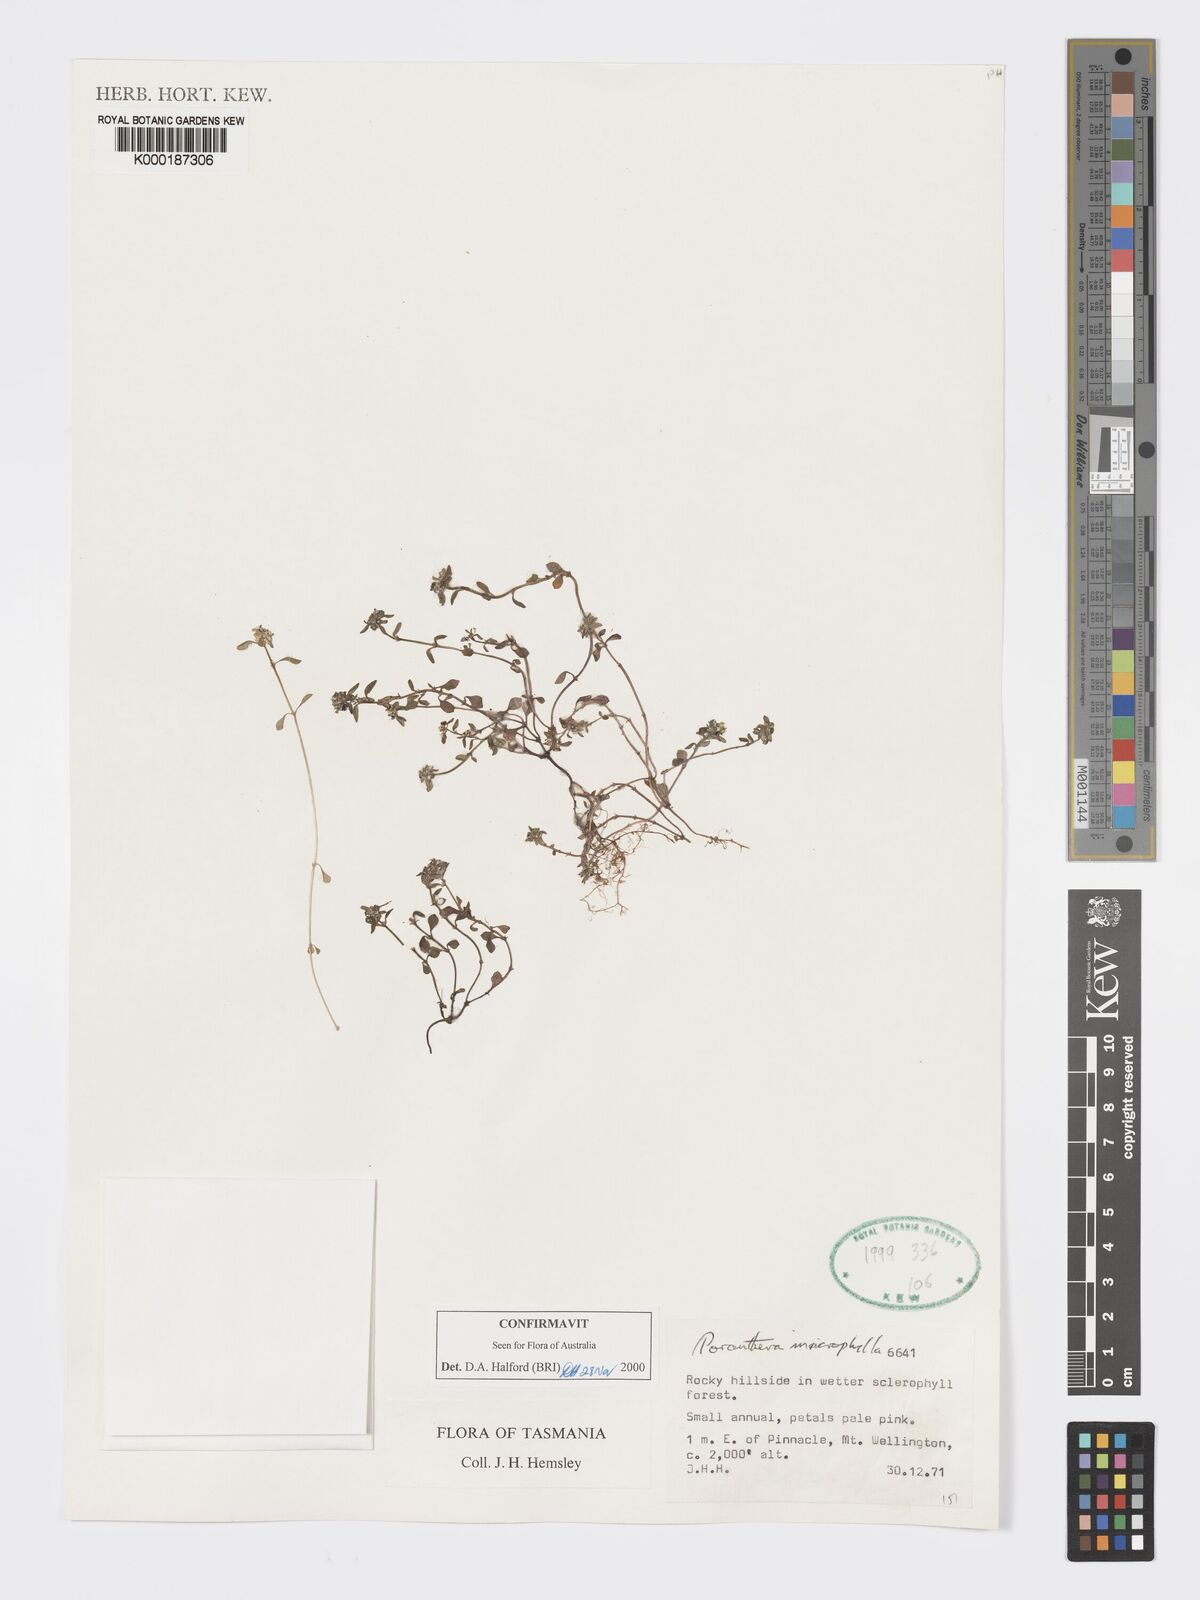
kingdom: Plantae
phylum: Tracheophyta
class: Magnoliopsida
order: Malpighiales
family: Phyllanthaceae
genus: Poranthera
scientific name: Poranthera microphylla
